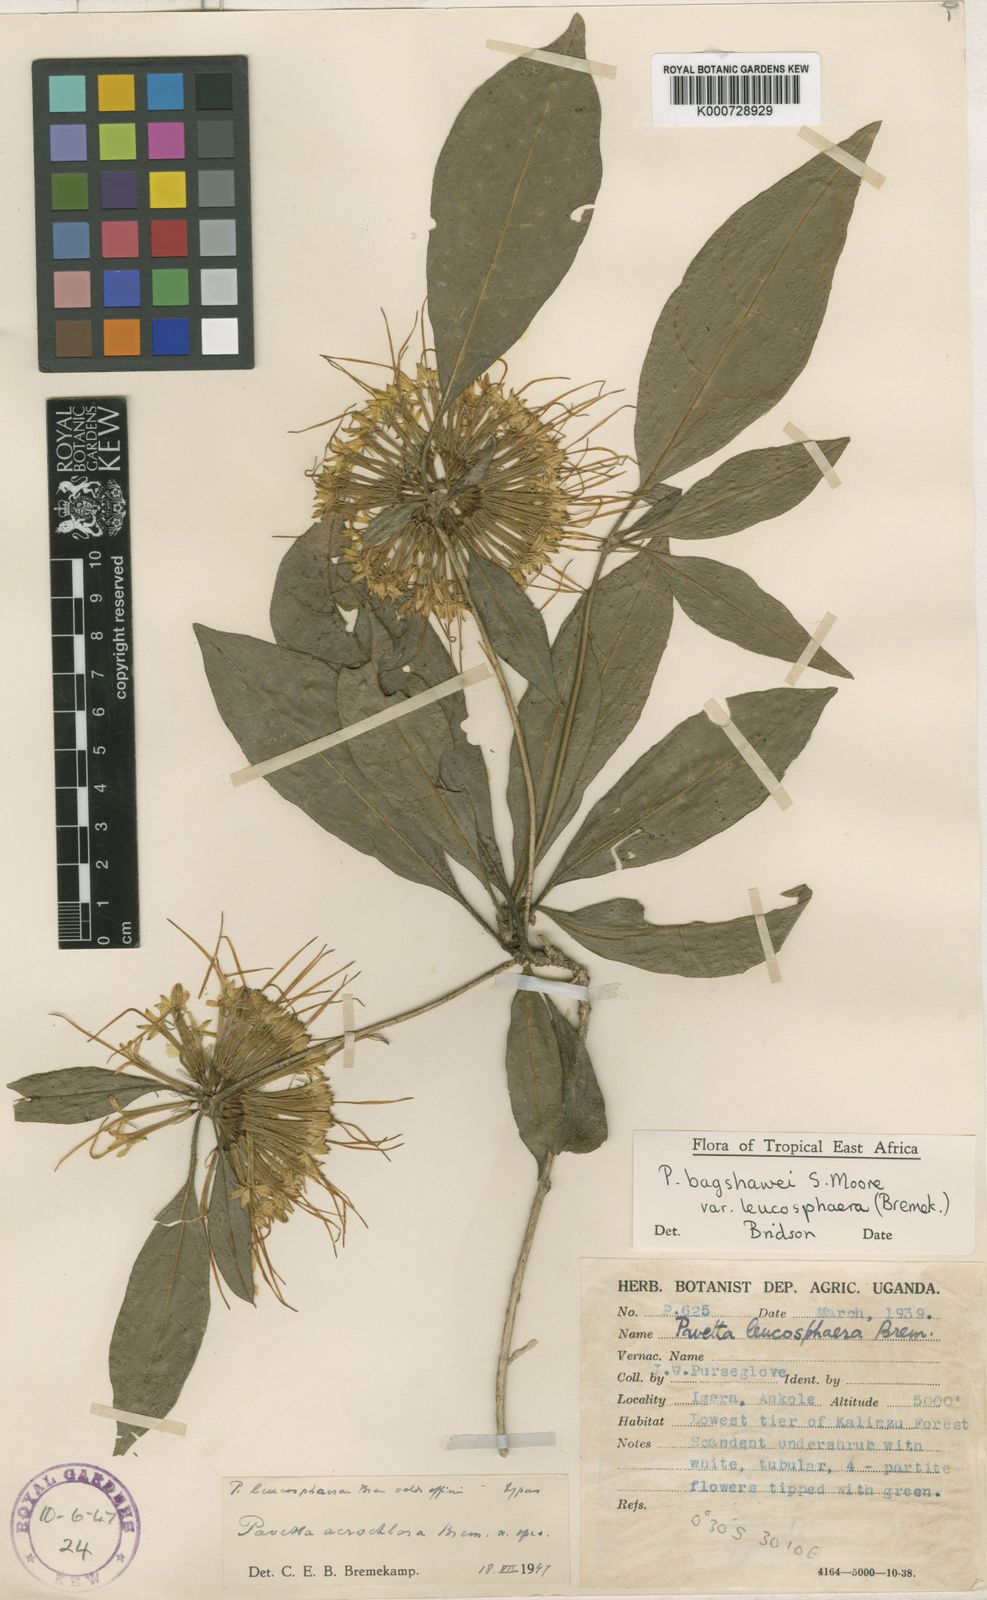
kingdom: Plantae
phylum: Tracheophyta
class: Magnoliopsida
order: Gentianales
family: Rubiaceae
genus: Pavetta
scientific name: Pavetta bagshawei
